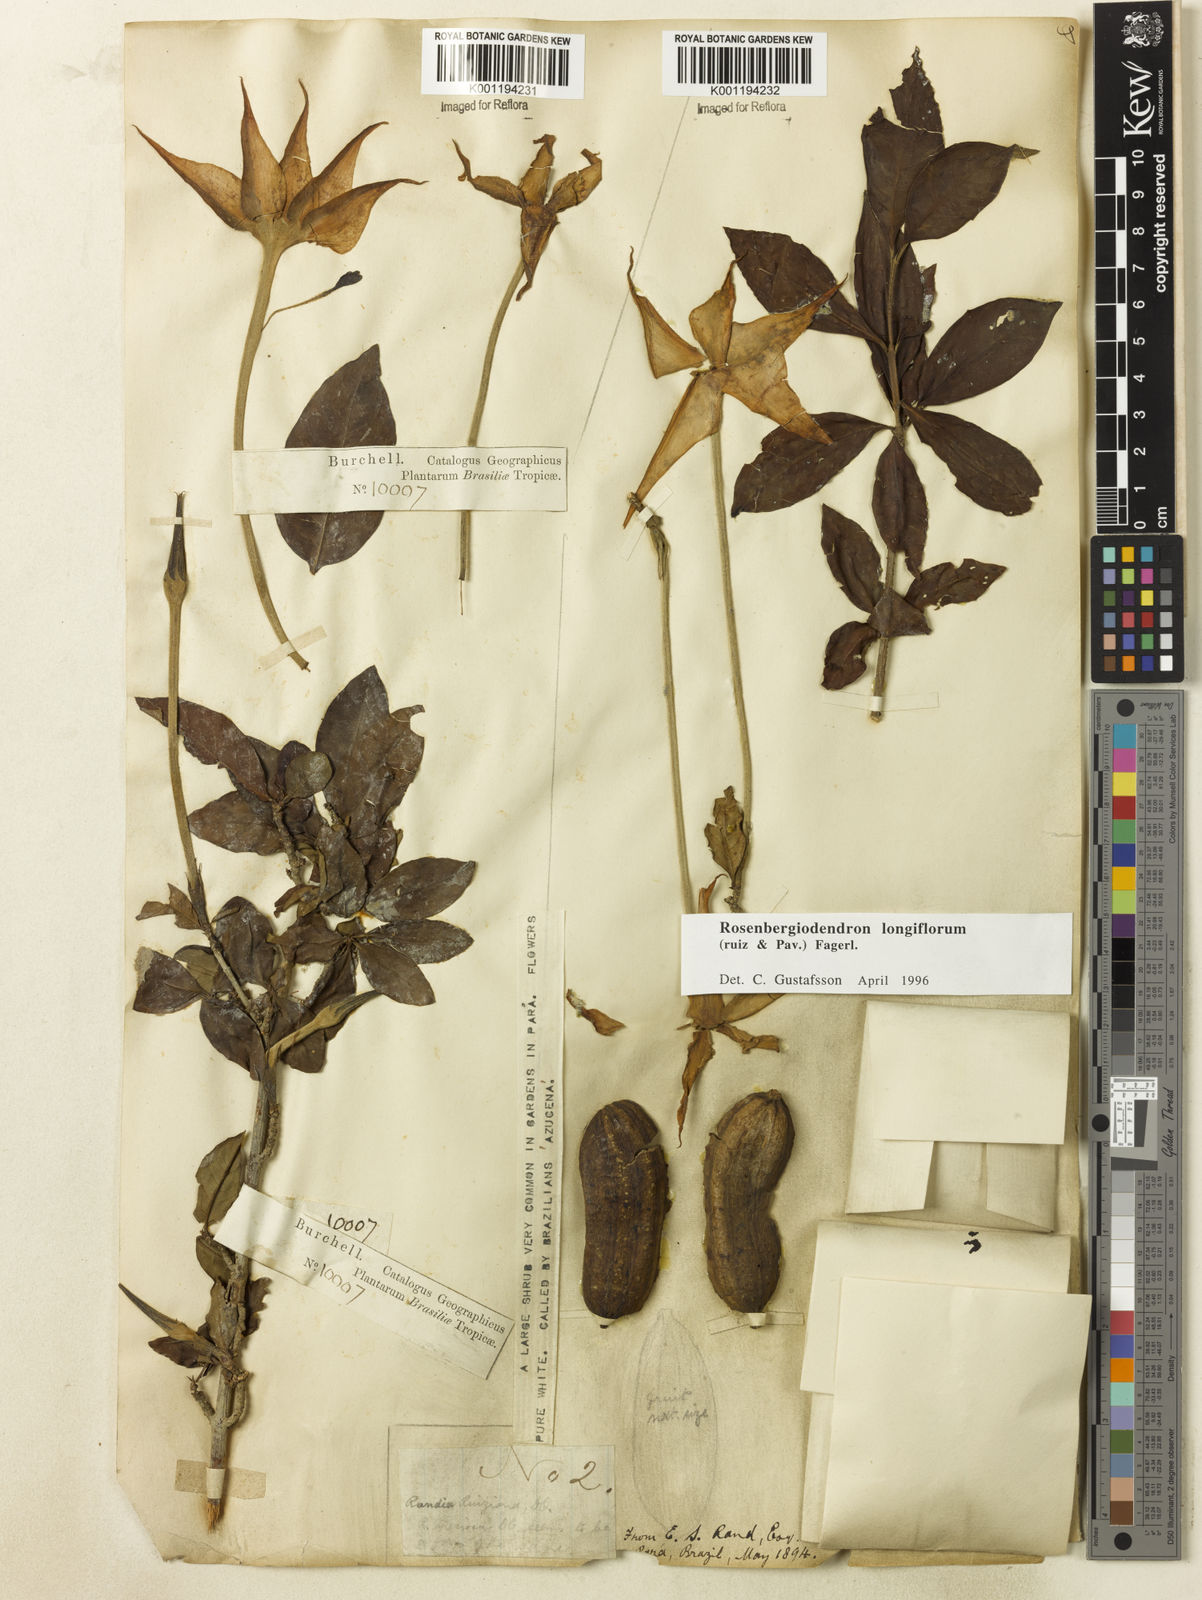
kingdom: Plantae
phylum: Tracheophyta
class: Magnoliopsida
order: Gentianales
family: Rubiaceae
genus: Rosenbergiodendron
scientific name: Rosenbergiodendron longiflorum
